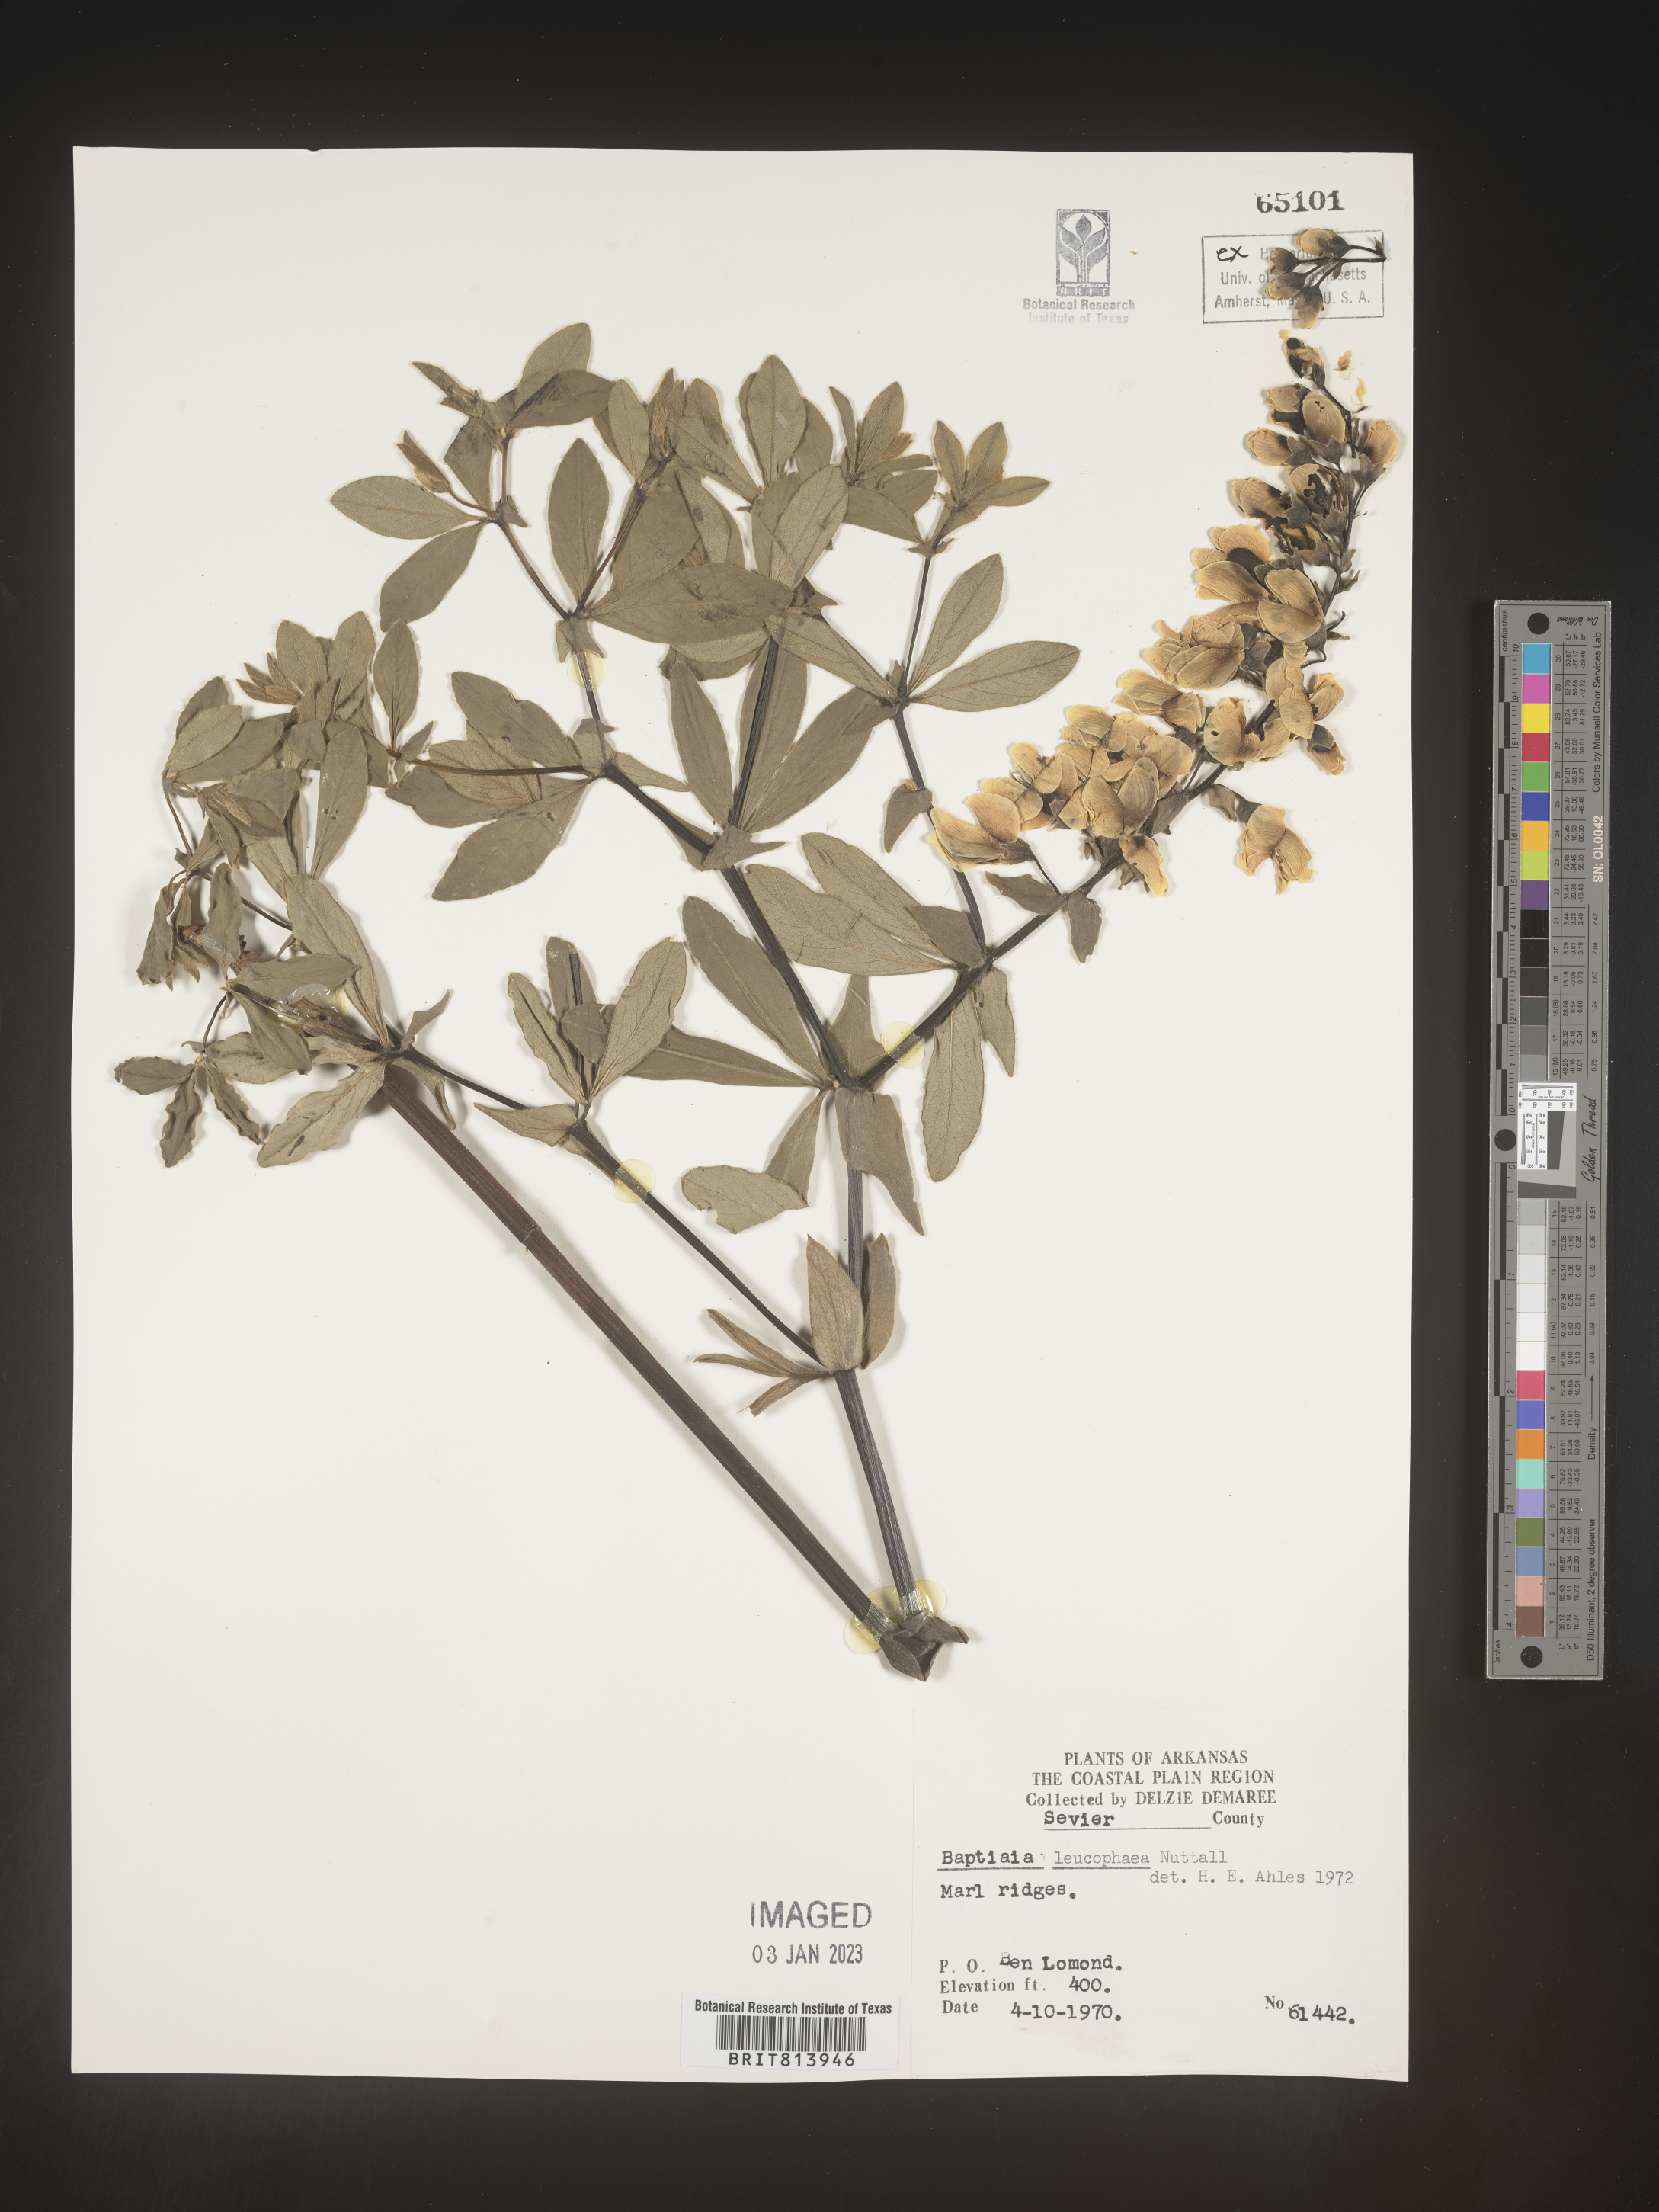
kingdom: Plantae
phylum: Tracheophyta
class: Magnoliopsida
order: Fabales
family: Fabaceae
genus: Baptisia
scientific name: Baptisia bracteata
